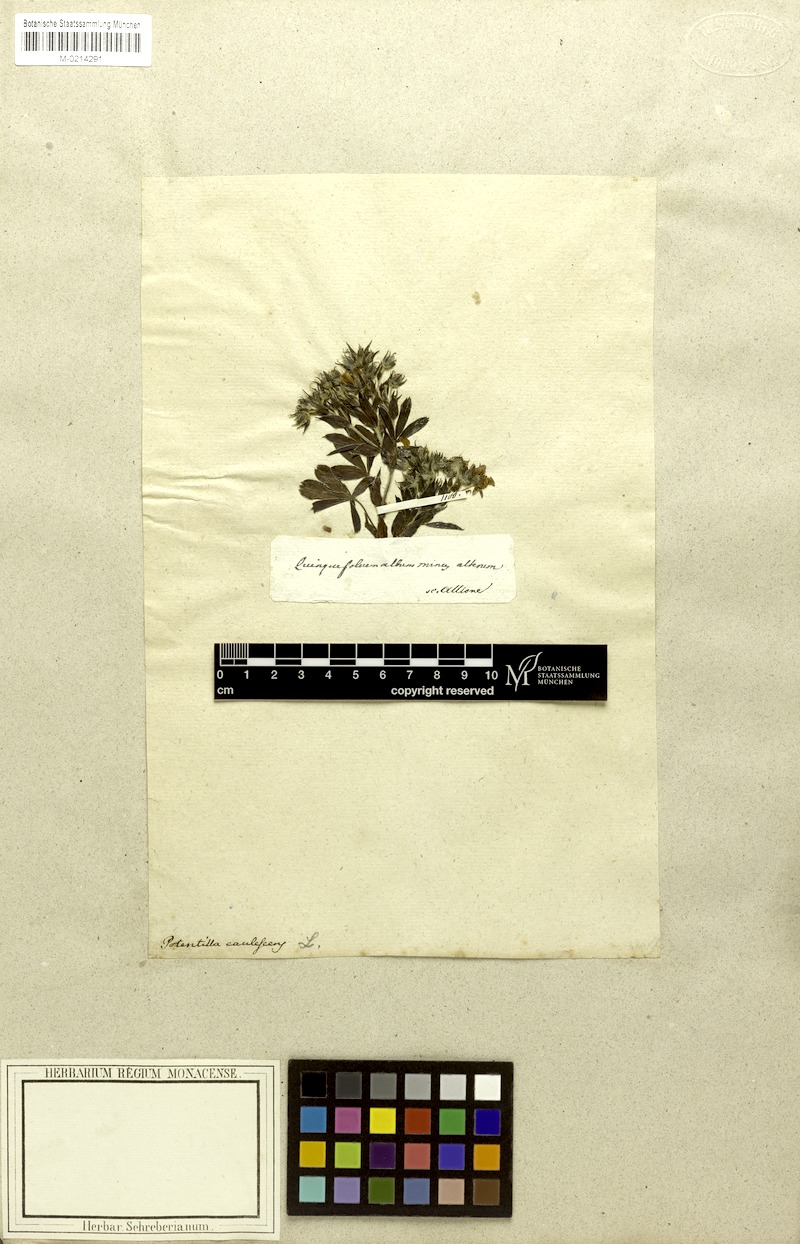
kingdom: Plantae
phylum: Tracheophyta
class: Magnoliopsida
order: Rosales
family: Rosaceae
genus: Potentilla
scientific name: Potentilla caulescens
